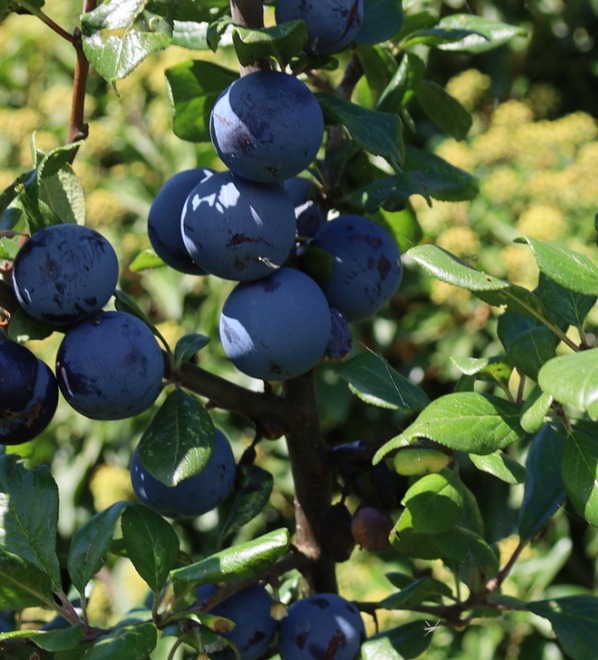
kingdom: Plantae
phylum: Tracheophyta
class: Magnoliopsida
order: Rosales
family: Rosaceae
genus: Prunus
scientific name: Prunus domestica
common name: Kræge
